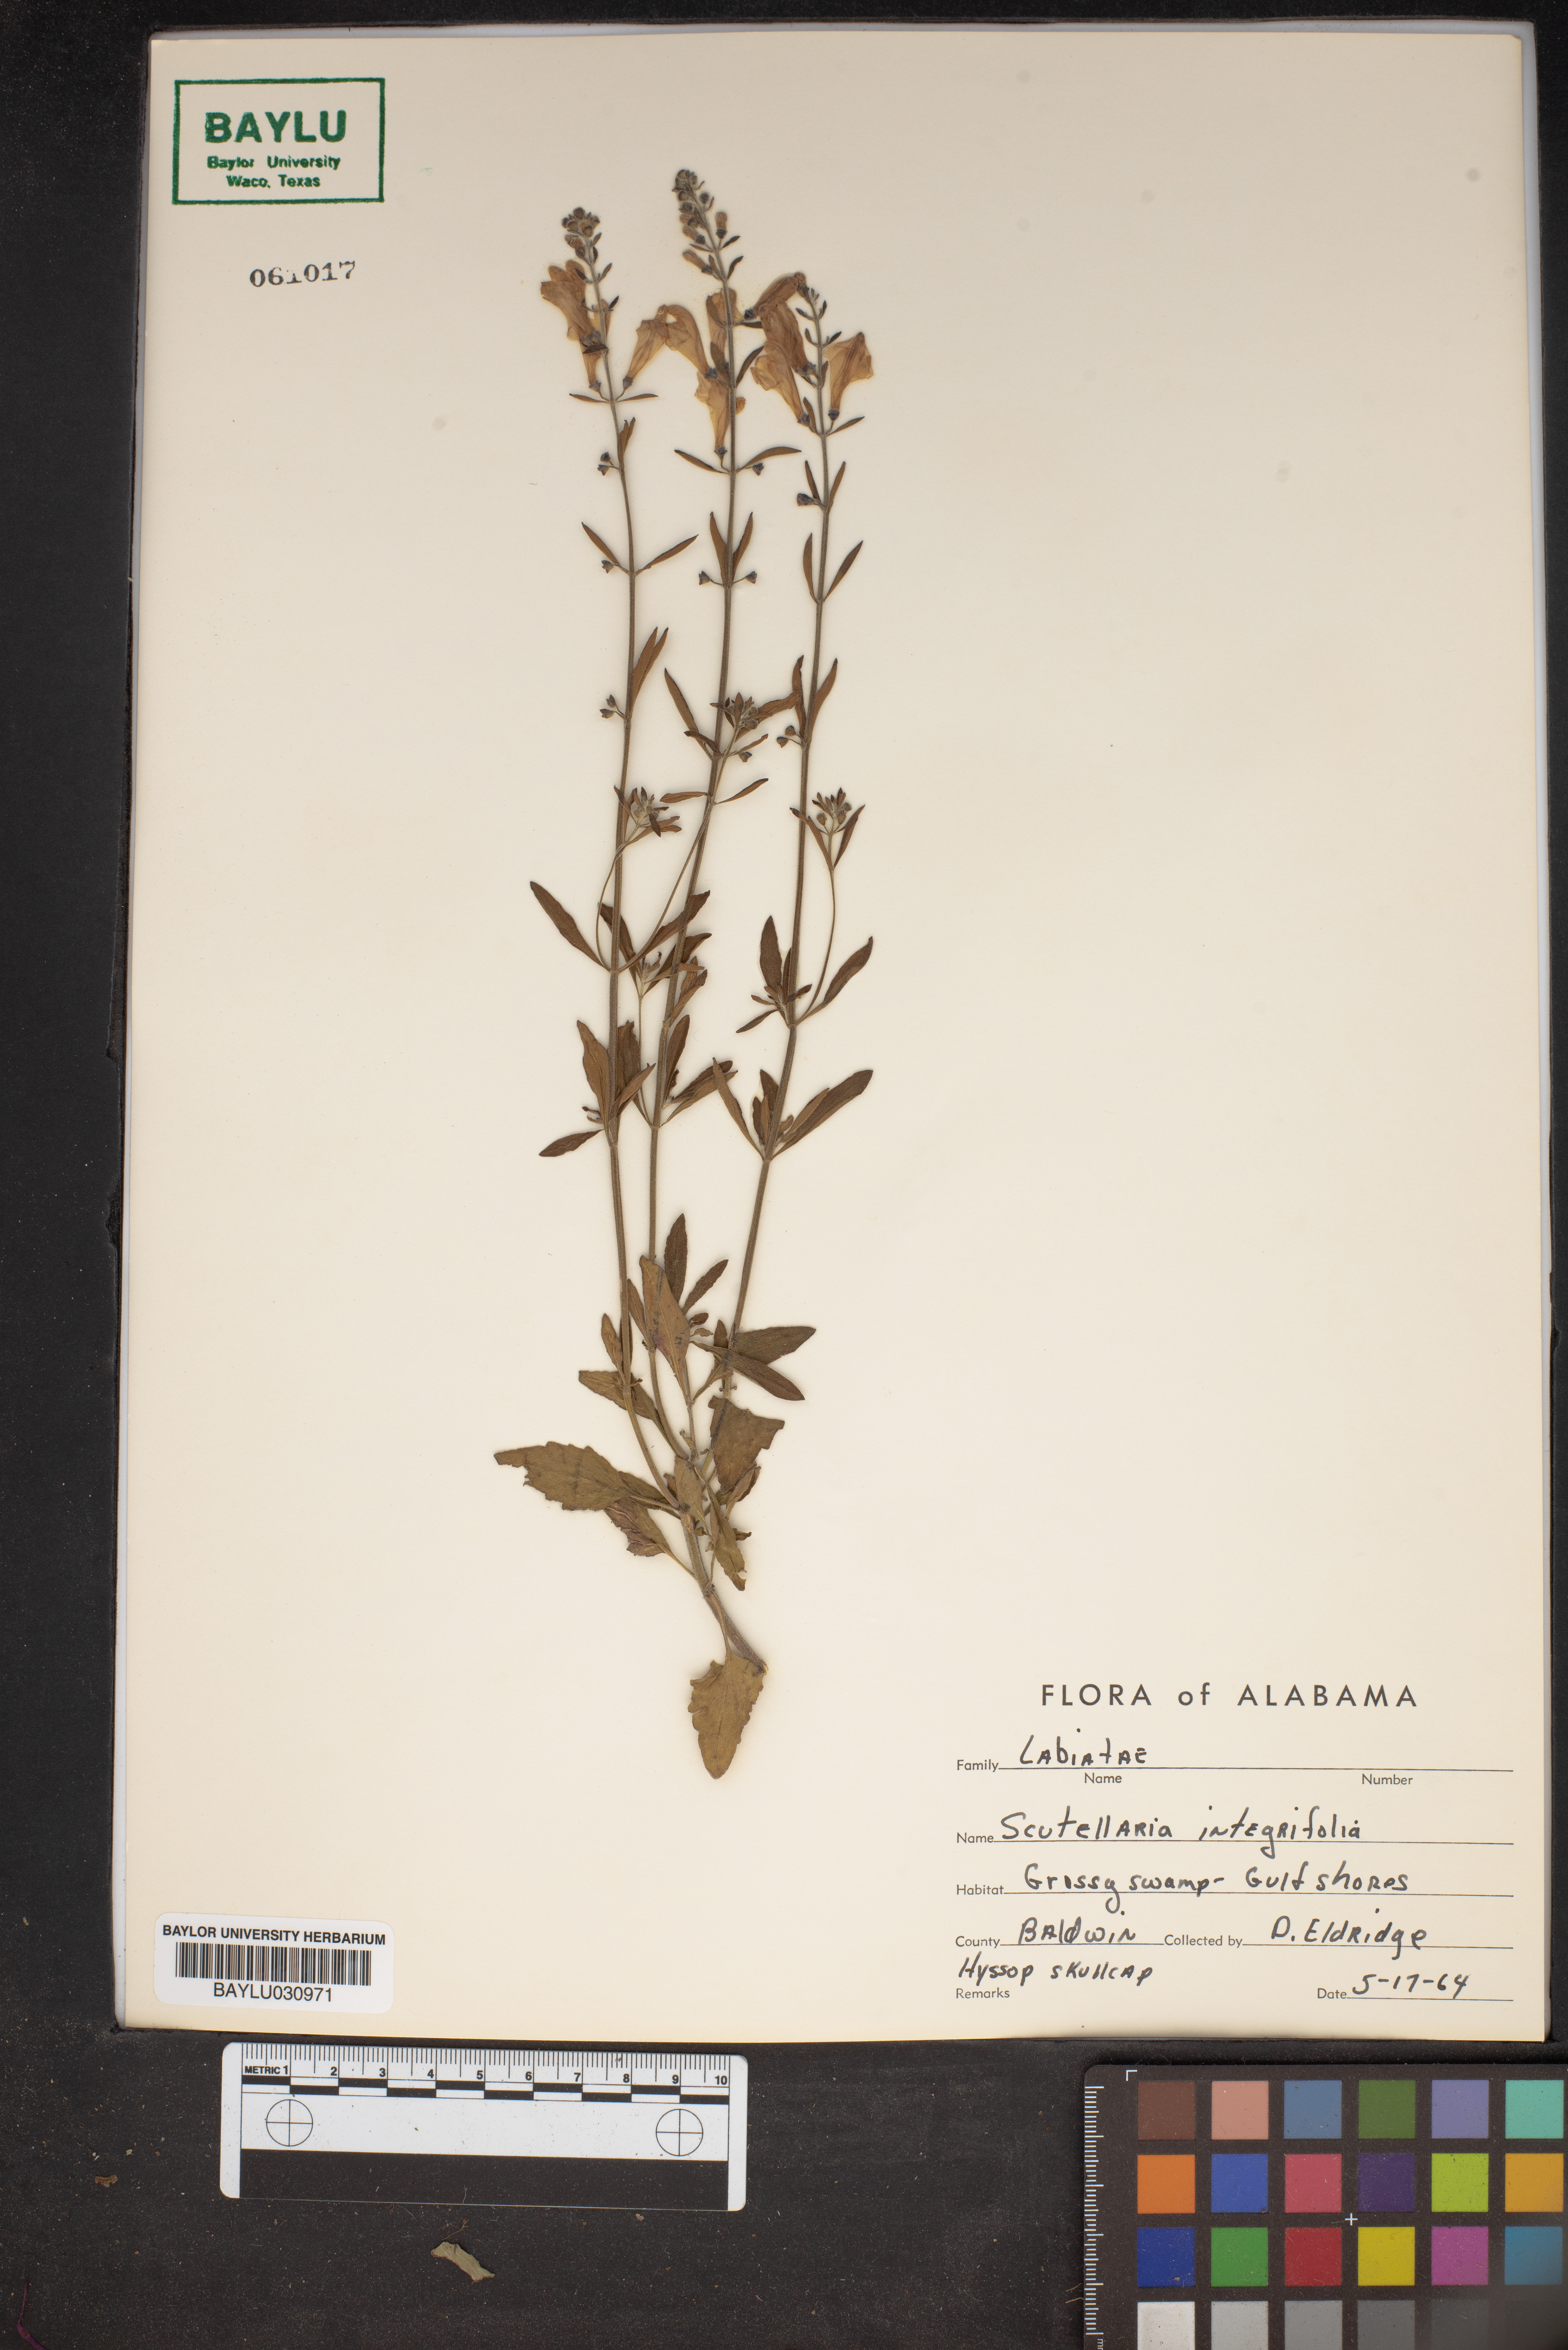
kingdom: Plantae
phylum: Tracheophyta
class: Magnoliopsida
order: Lamiales
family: Lamiaceae
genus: Scutellaria
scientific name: Scutellaria integrifolia
